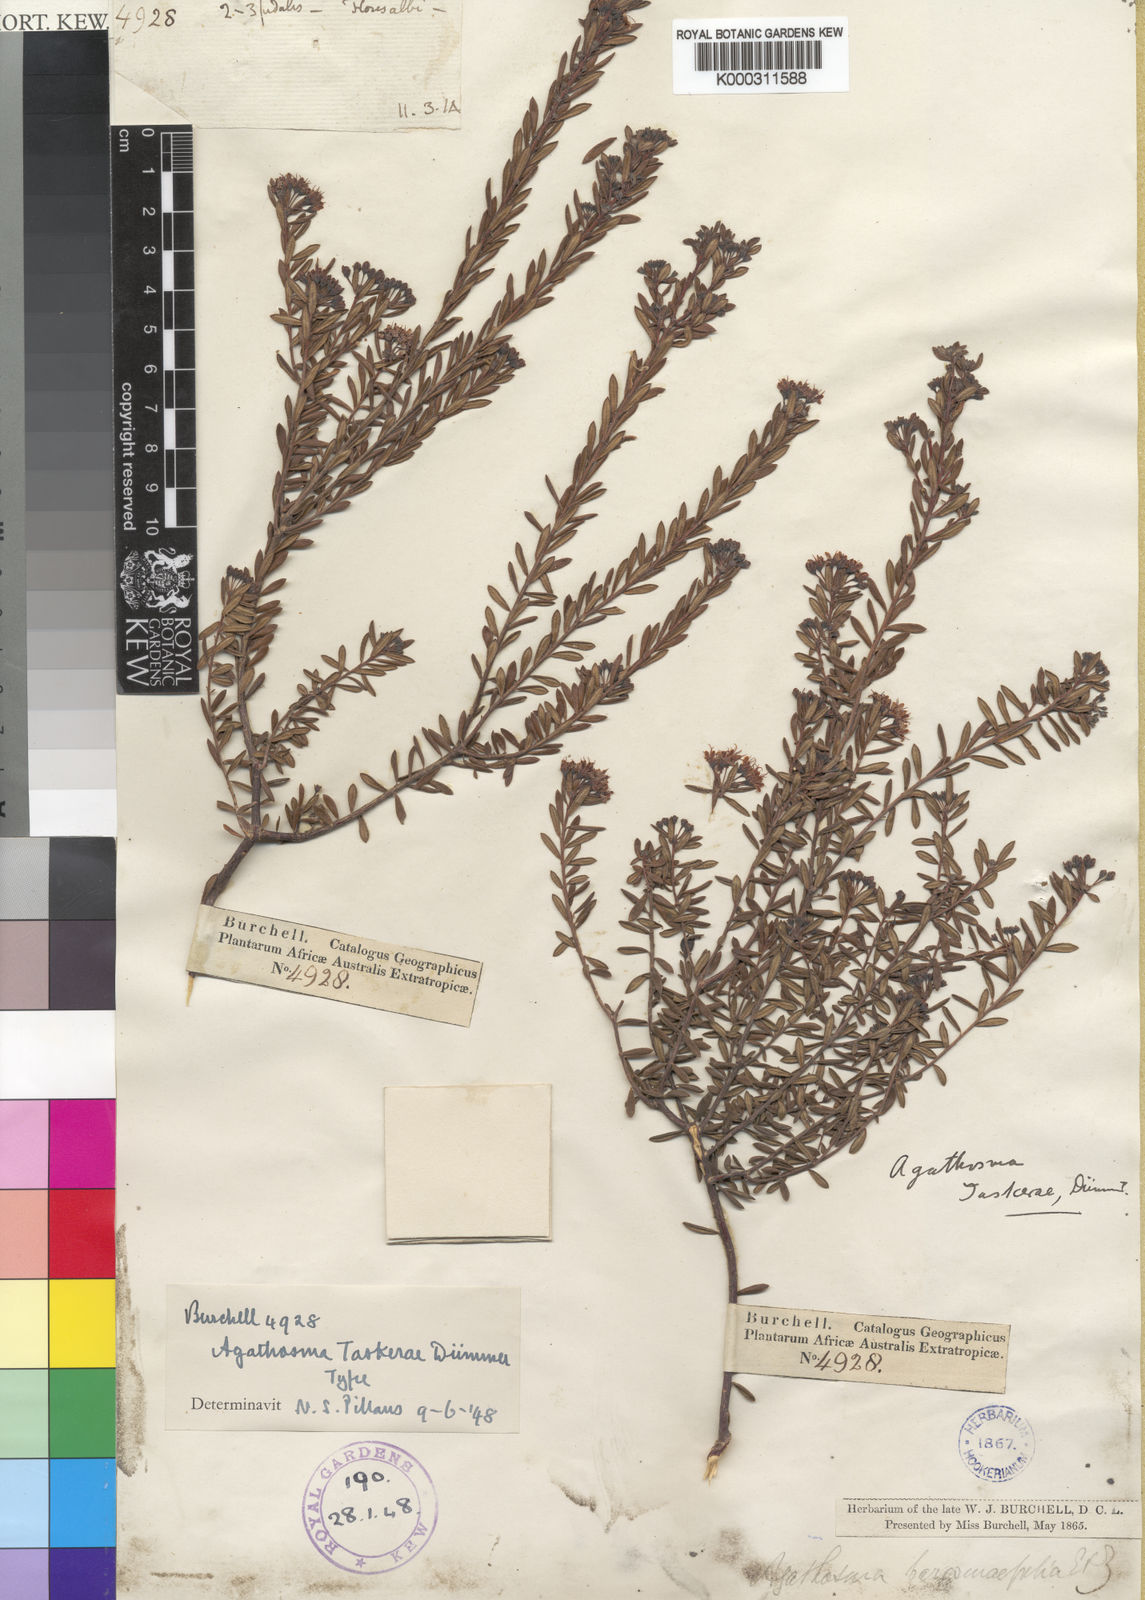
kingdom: Plantae
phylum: Tracheophyta
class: Magnoliopsida
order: Sapindales
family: Rutaceae
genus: Agathosma
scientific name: Agathosma mundii
